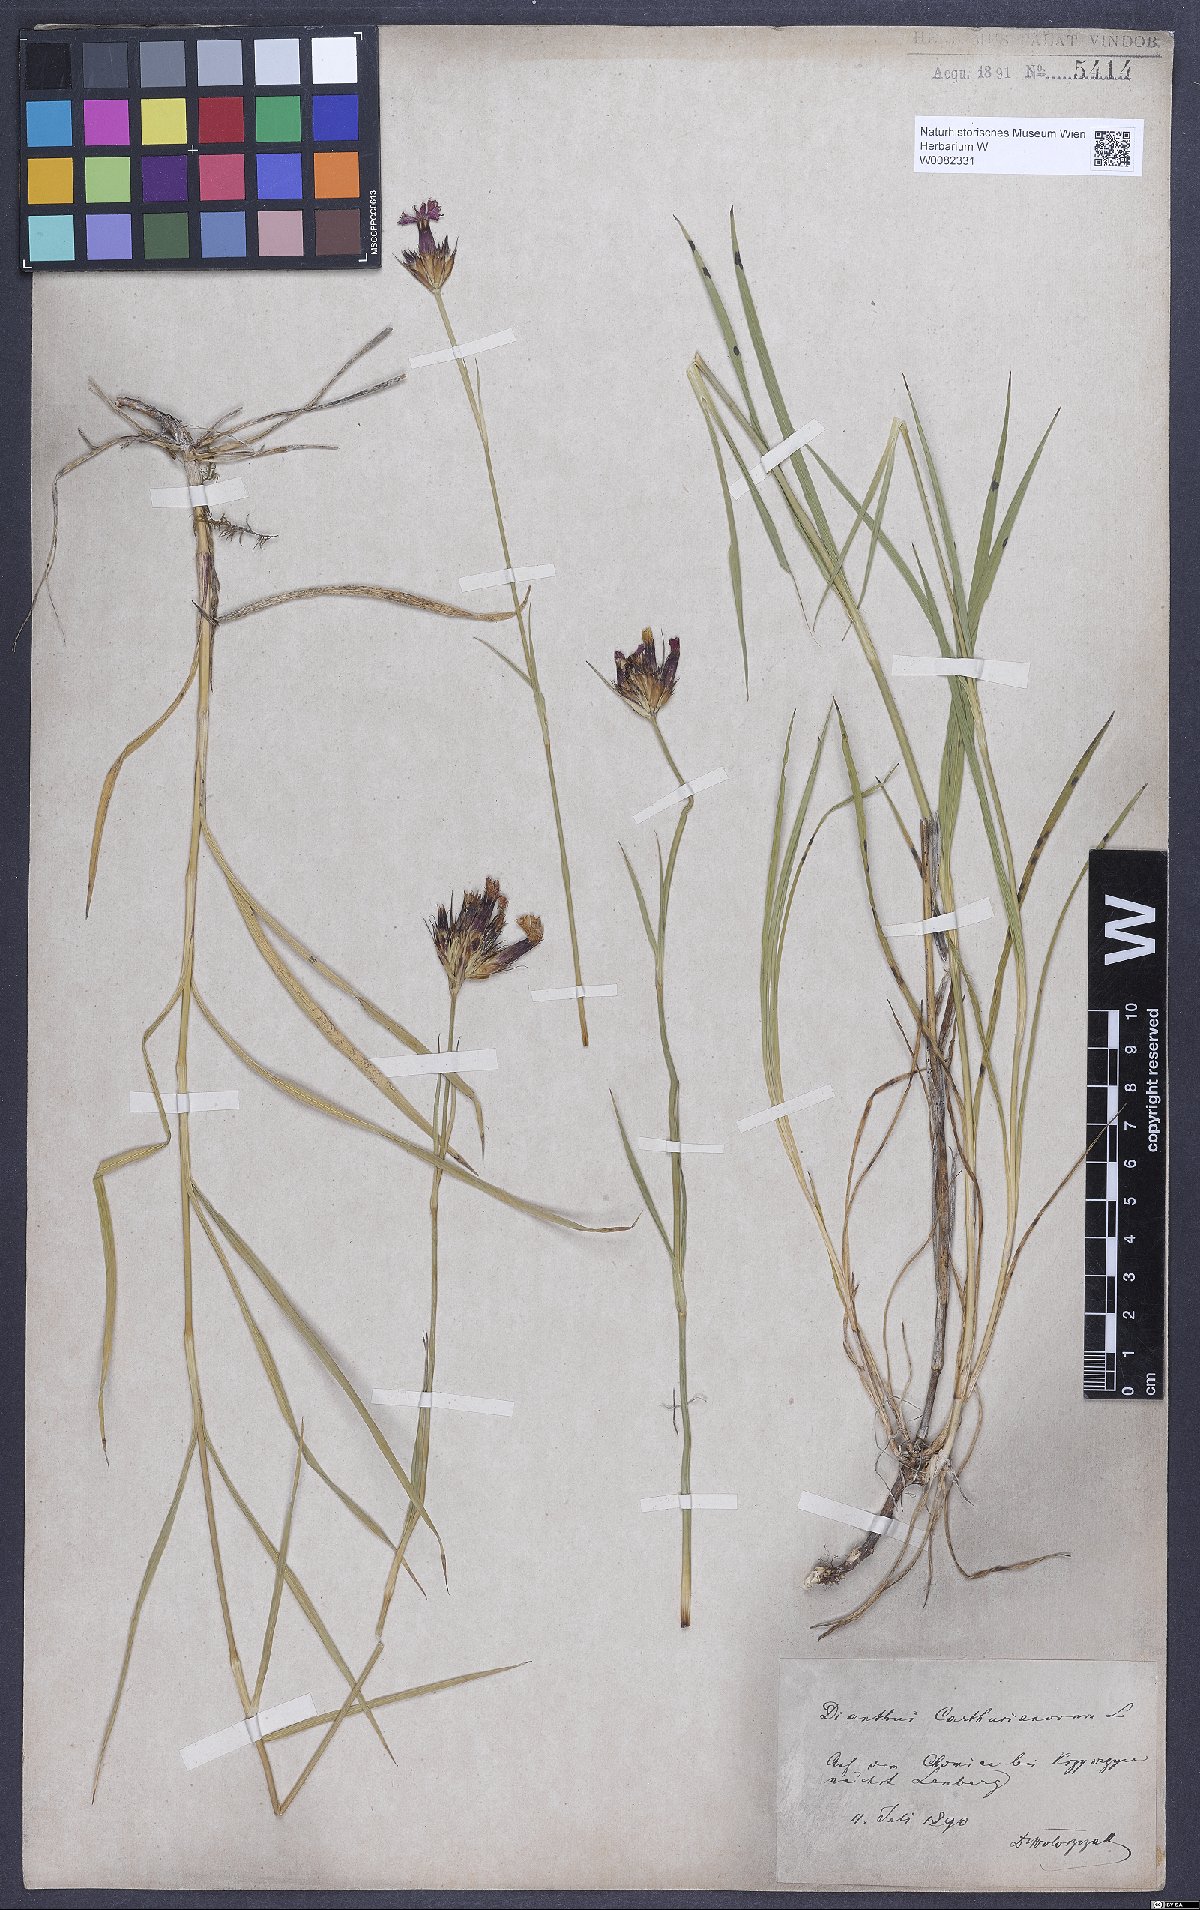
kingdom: Plantae
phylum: Tracheophyta
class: Magnoliopsida
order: Caryophyllales
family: Caryophyllaceae
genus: Dianthus
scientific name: Dianthus carthusianorum
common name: Carthusian pink
